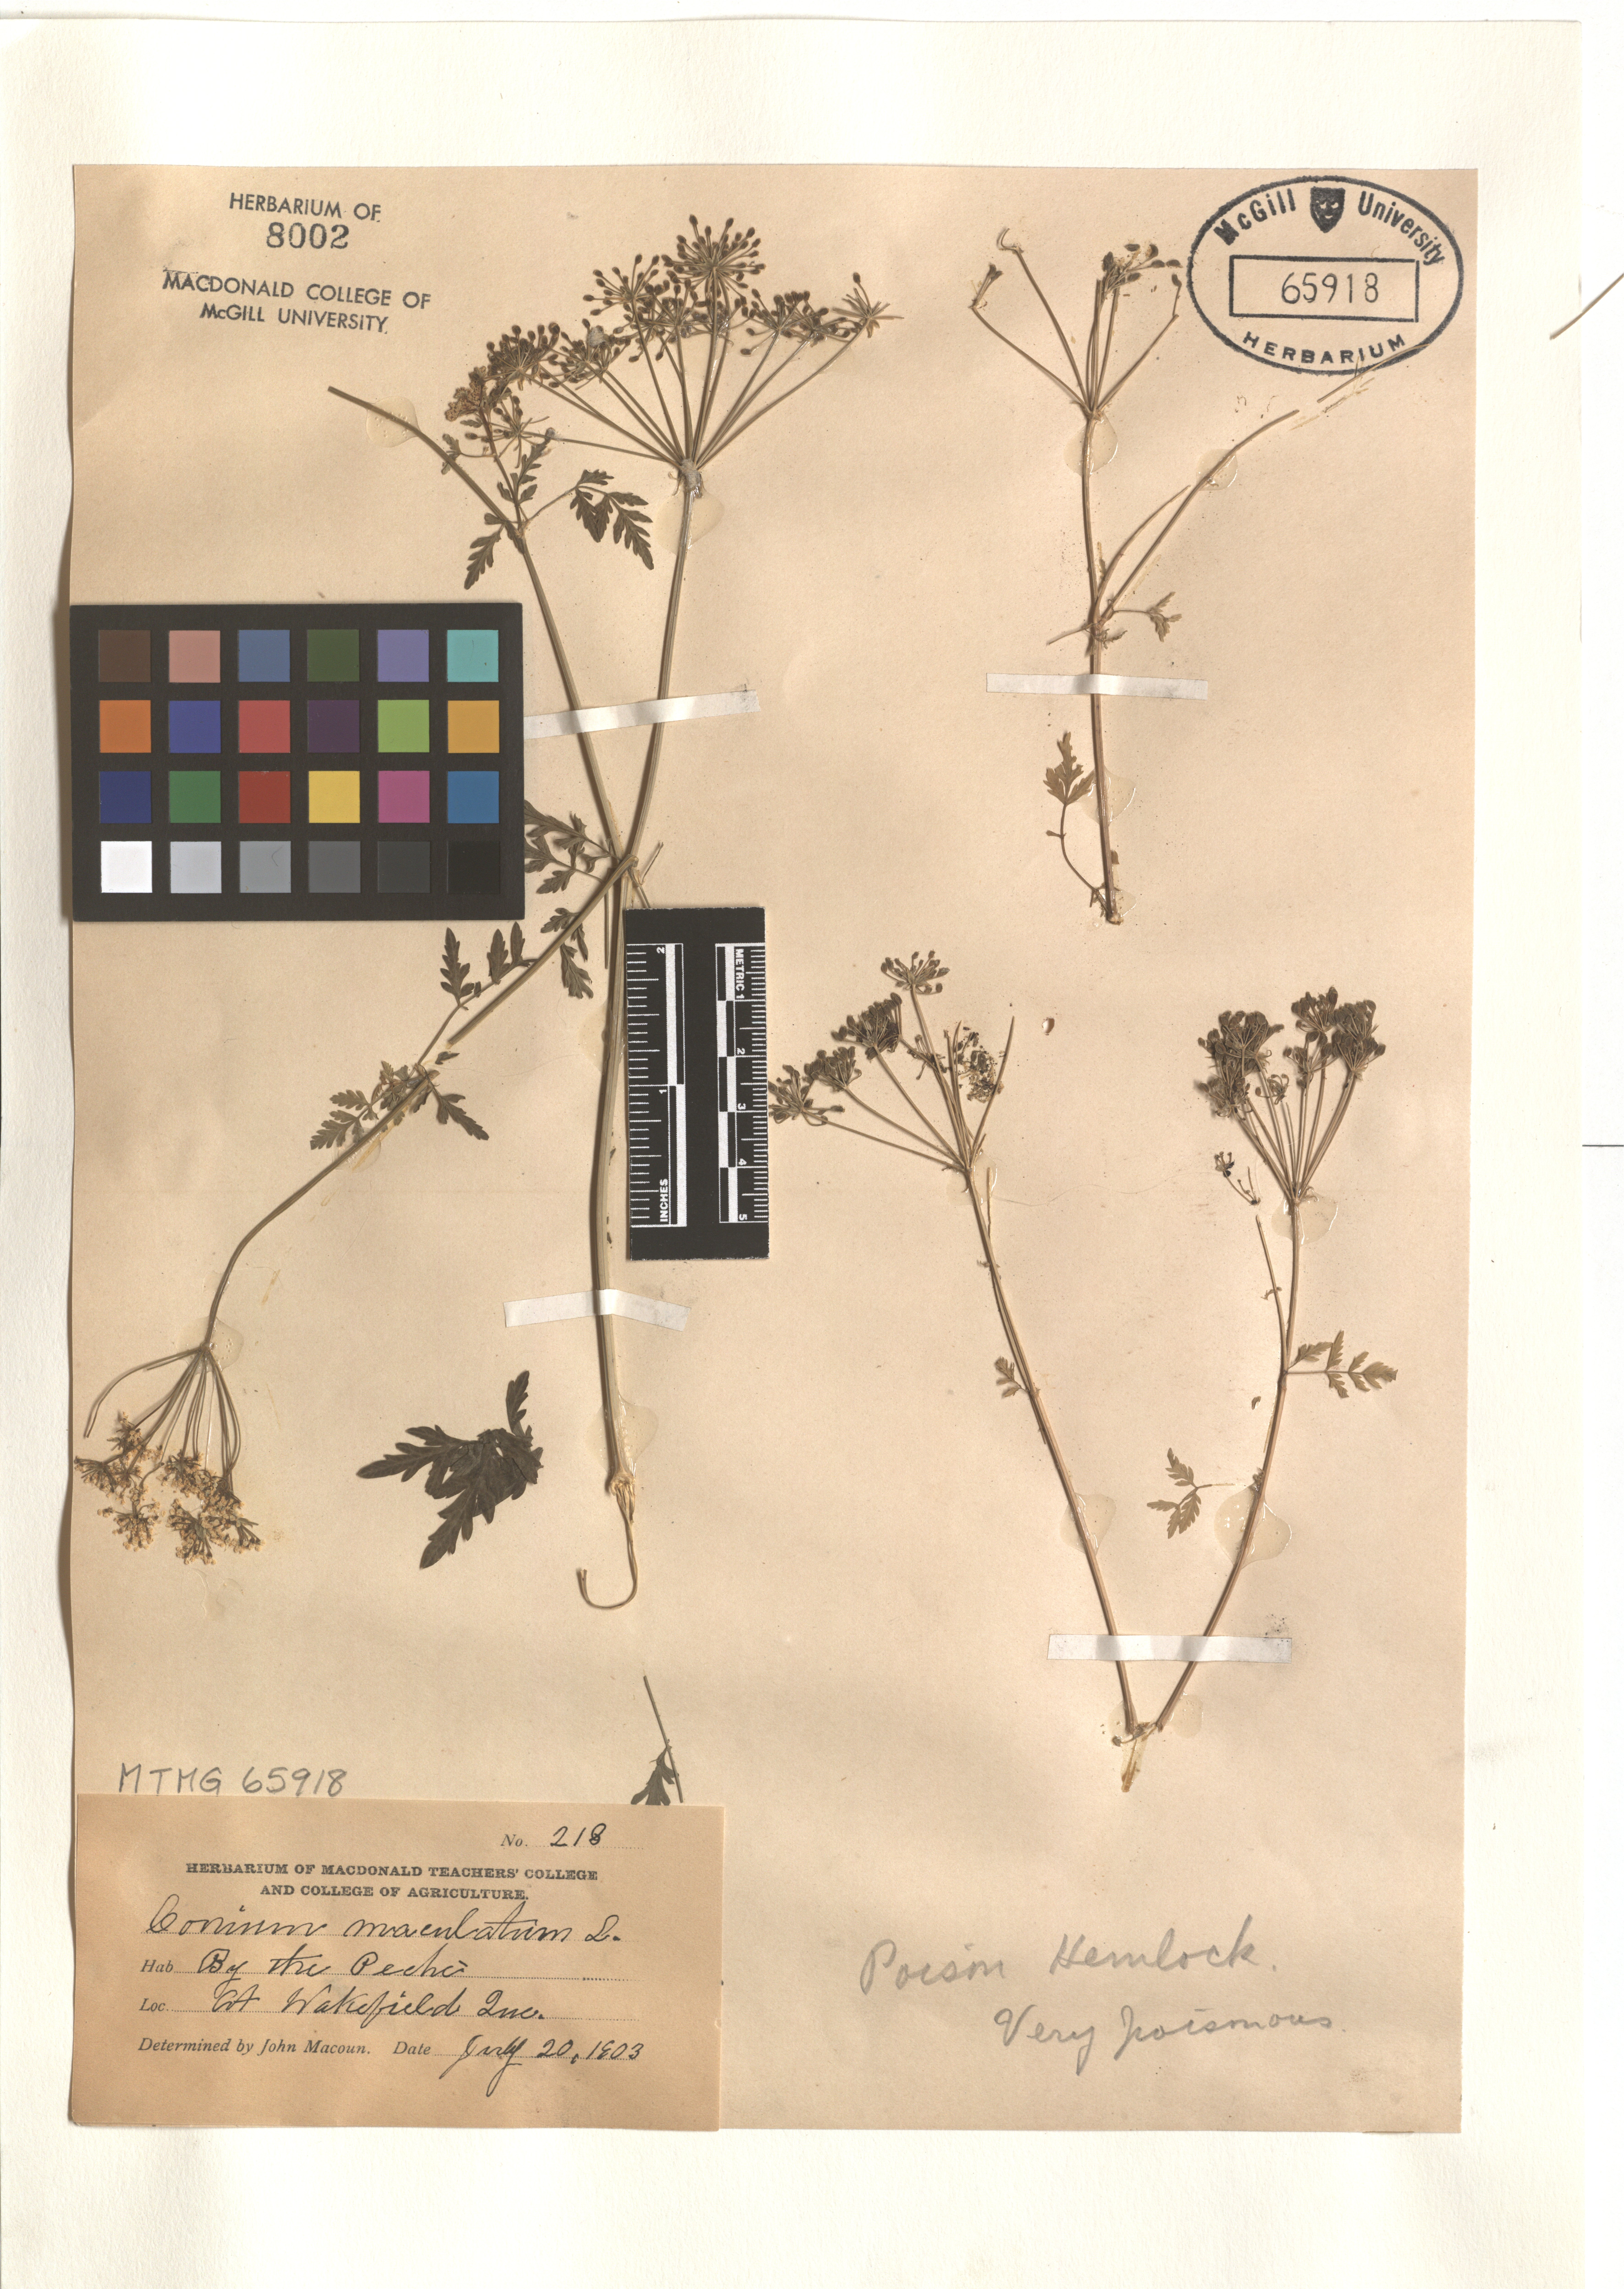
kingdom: Plantae
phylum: Tracheophyta
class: Magnoliopsida
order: Apiales
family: Apiaceae
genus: Conium
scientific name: Conium maculatum
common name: Hemlock
